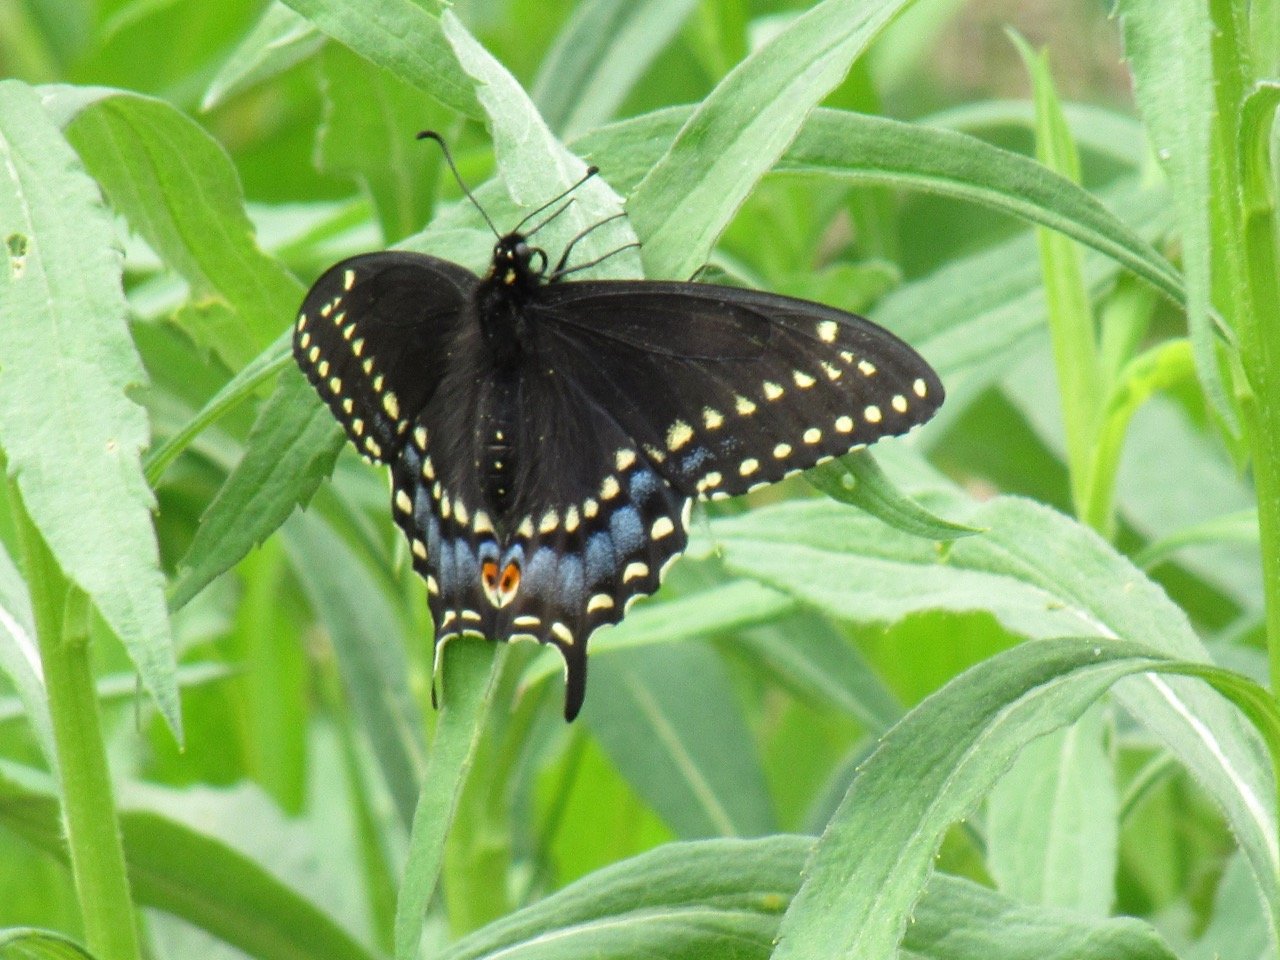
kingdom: Animalia
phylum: Arthropoda
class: Insecta
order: Lepidoptera
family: Papilionidae
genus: Papilio
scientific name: Papilio polyxenes
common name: Black Swallowtail
